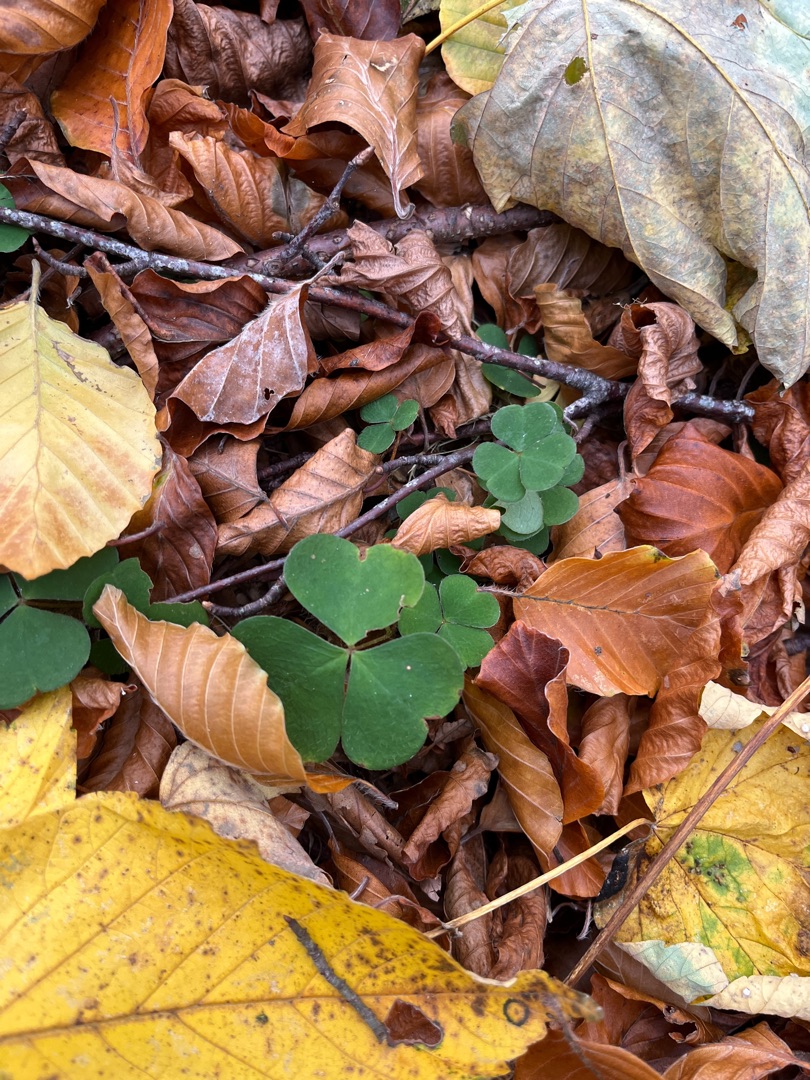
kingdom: Plantae
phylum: Tracheophyta
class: Magnoliopsida
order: Oxalidales
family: Oxalidaceae
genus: Oxalis
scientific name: Oxalis acetosella
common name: Skovsyre
